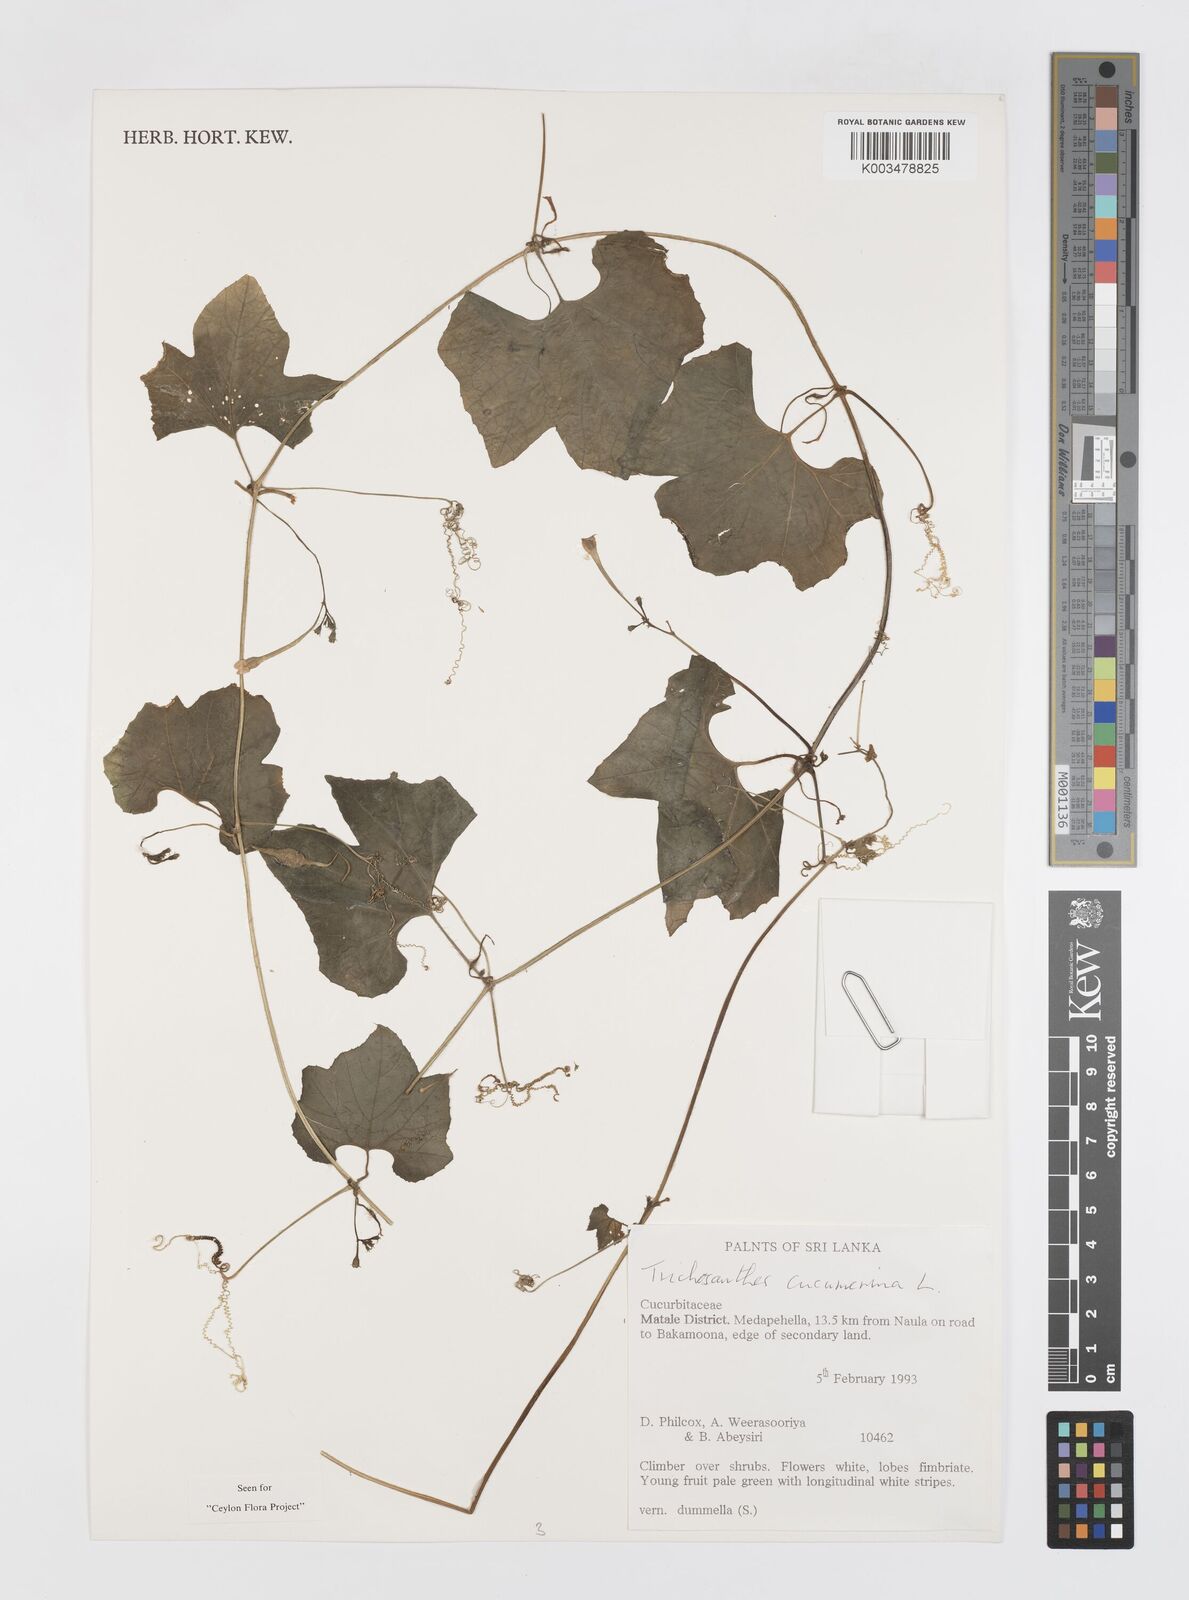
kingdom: Plantae
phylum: Tracheophyta
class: Magnoliopsida
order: Cucurbitales
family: Cucurbitaceae
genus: Trichosanthes
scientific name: Trichosanthes cucumerina
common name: Snakegourd
